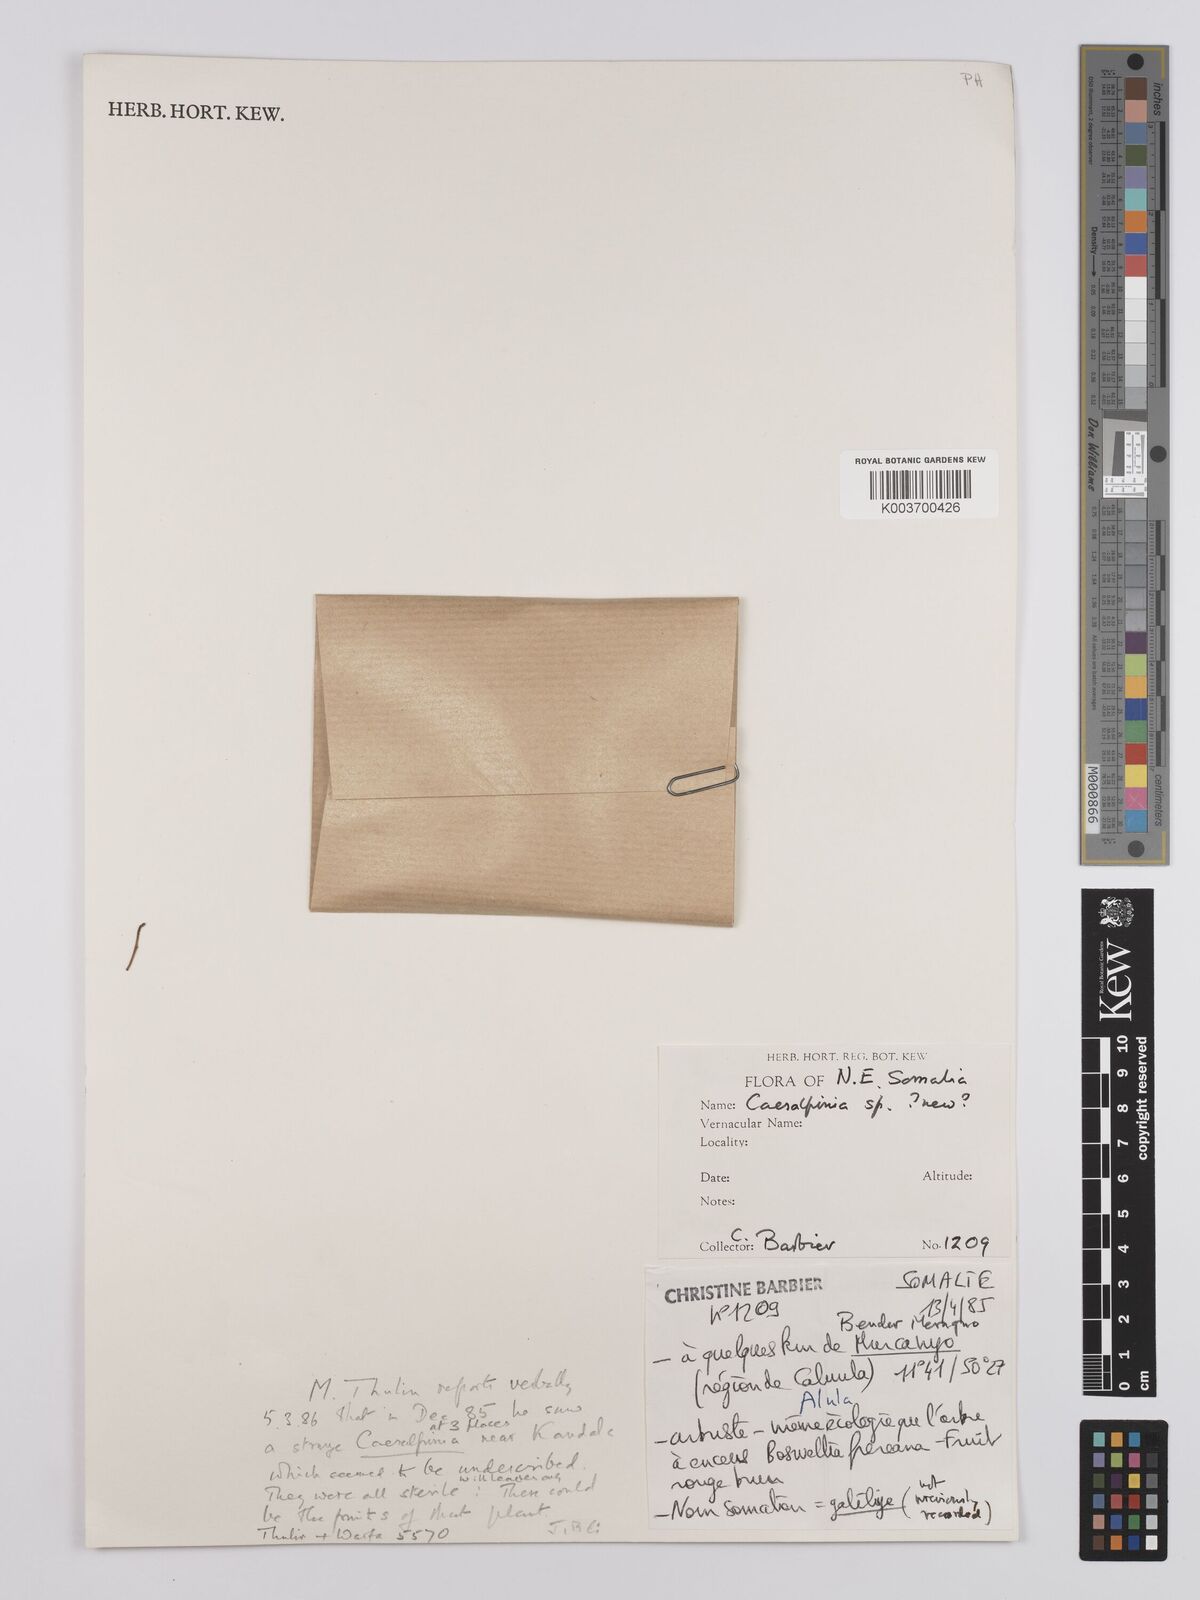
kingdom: Plantae
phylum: Tracheophyta
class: Magnoliopsida
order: Fabales
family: Fabaceae
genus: Denisophytum
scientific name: Denisophytum eriantherum
